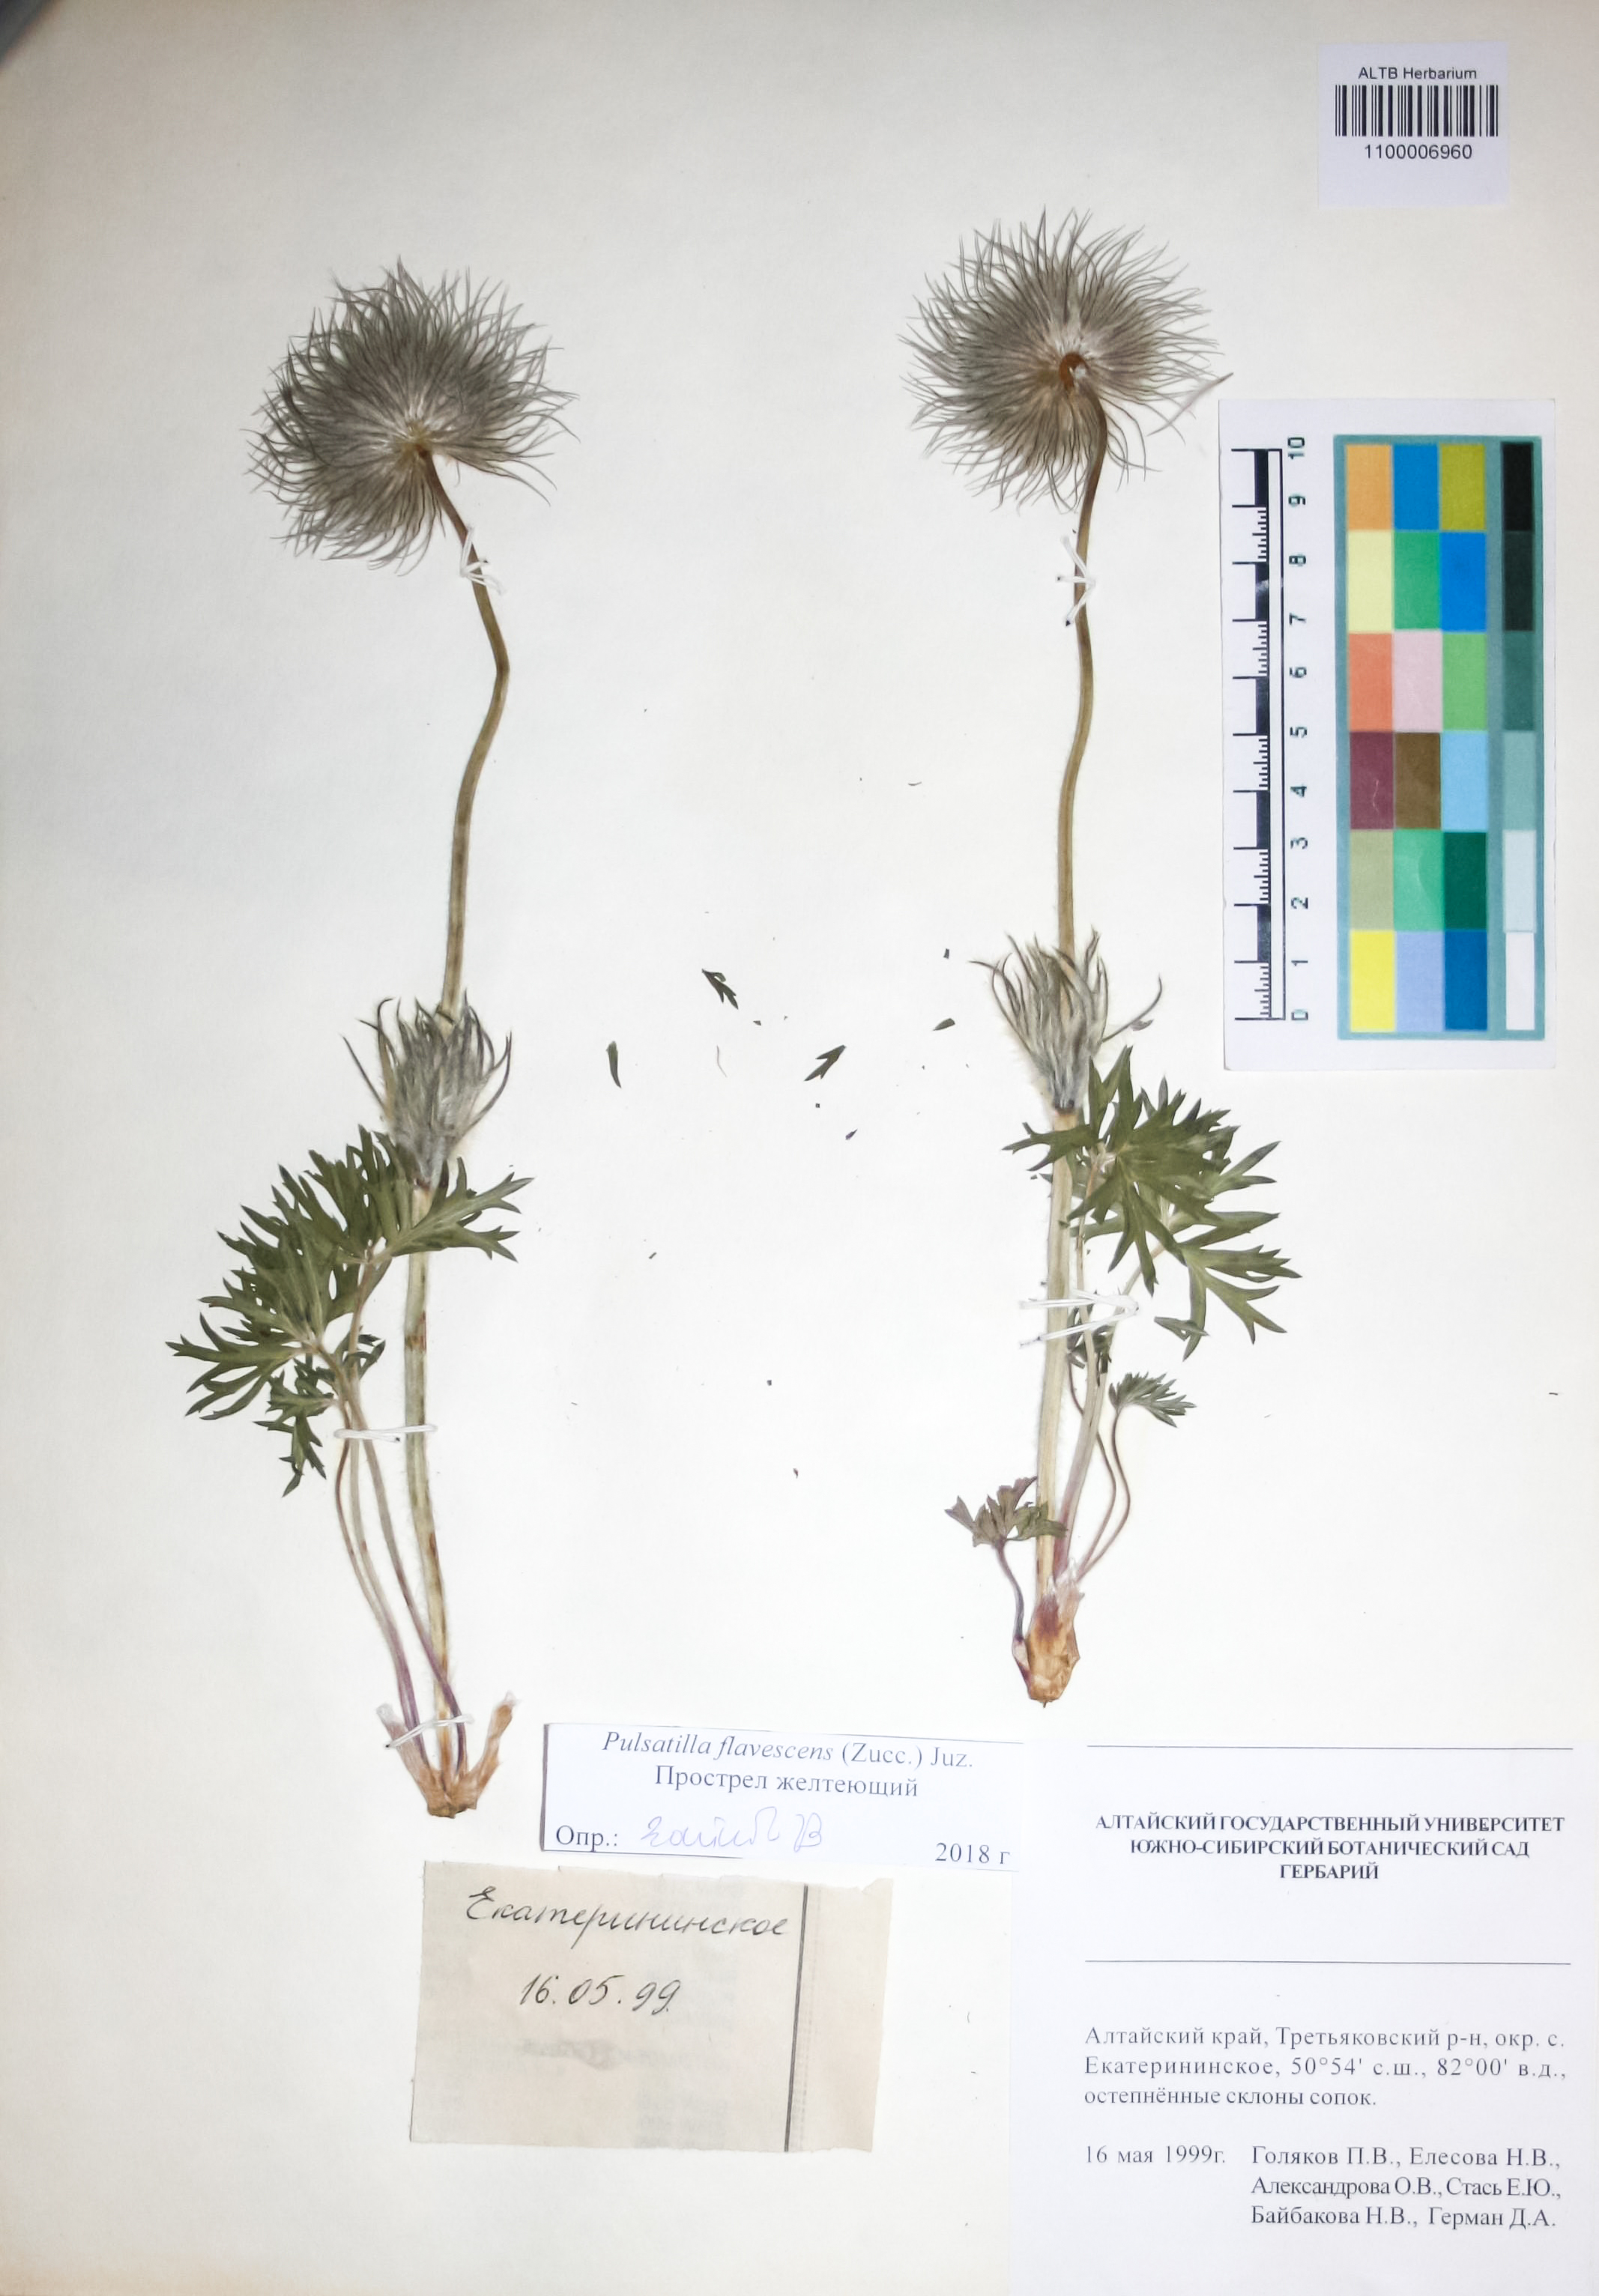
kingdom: Plantae
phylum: Tracheophyta
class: Magnoliopsida
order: Ranunculales
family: Ranunculaceae
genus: Pulsatilla
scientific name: Pulsatilla patens
